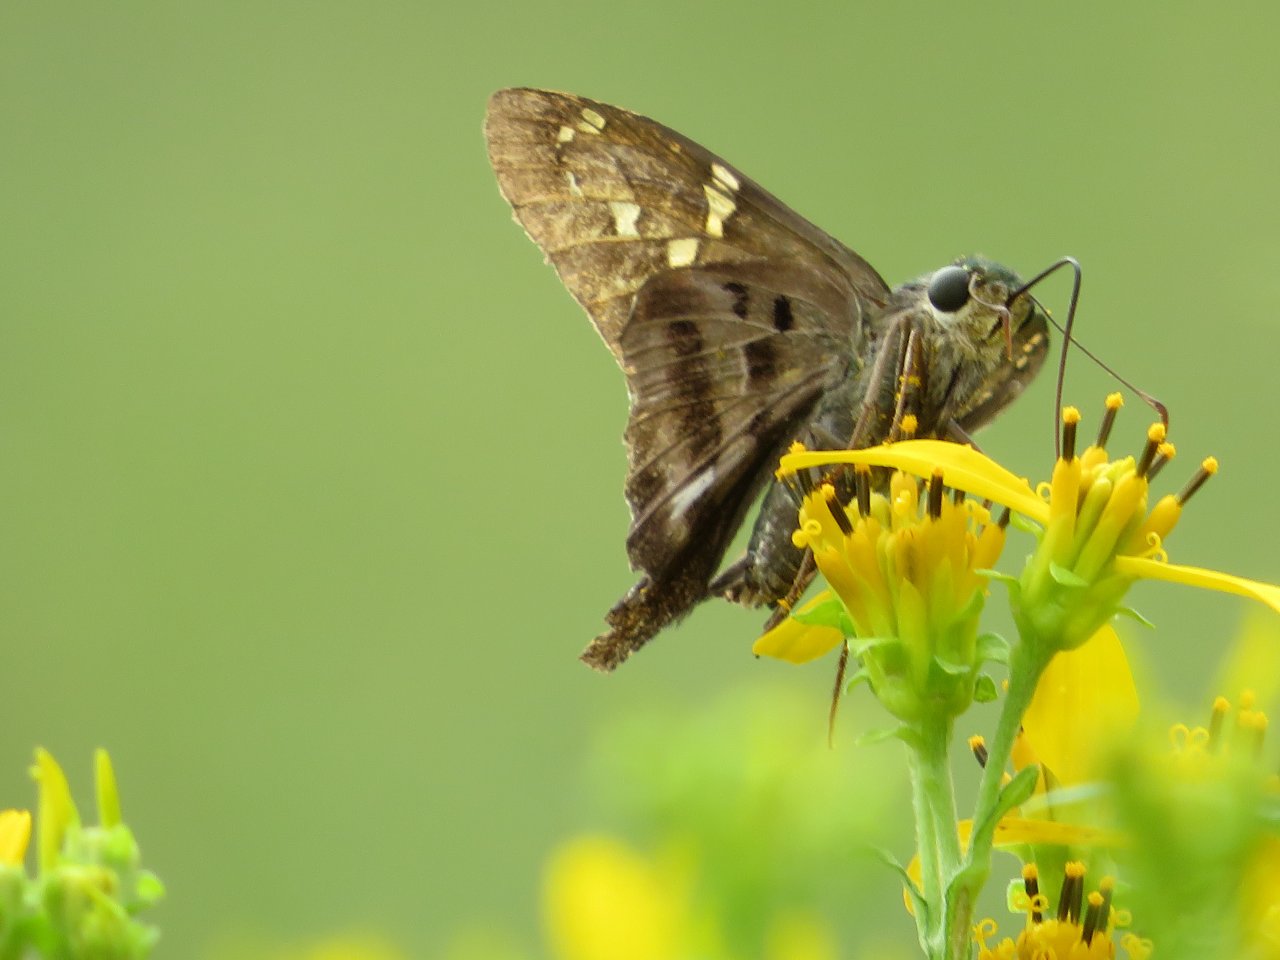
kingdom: Animalia
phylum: Arthropoda
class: Insecta
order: Lepidoptera
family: Hesperiidae
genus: Urbanus
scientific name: Urbanus proteus
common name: Long-tailed Skipper
